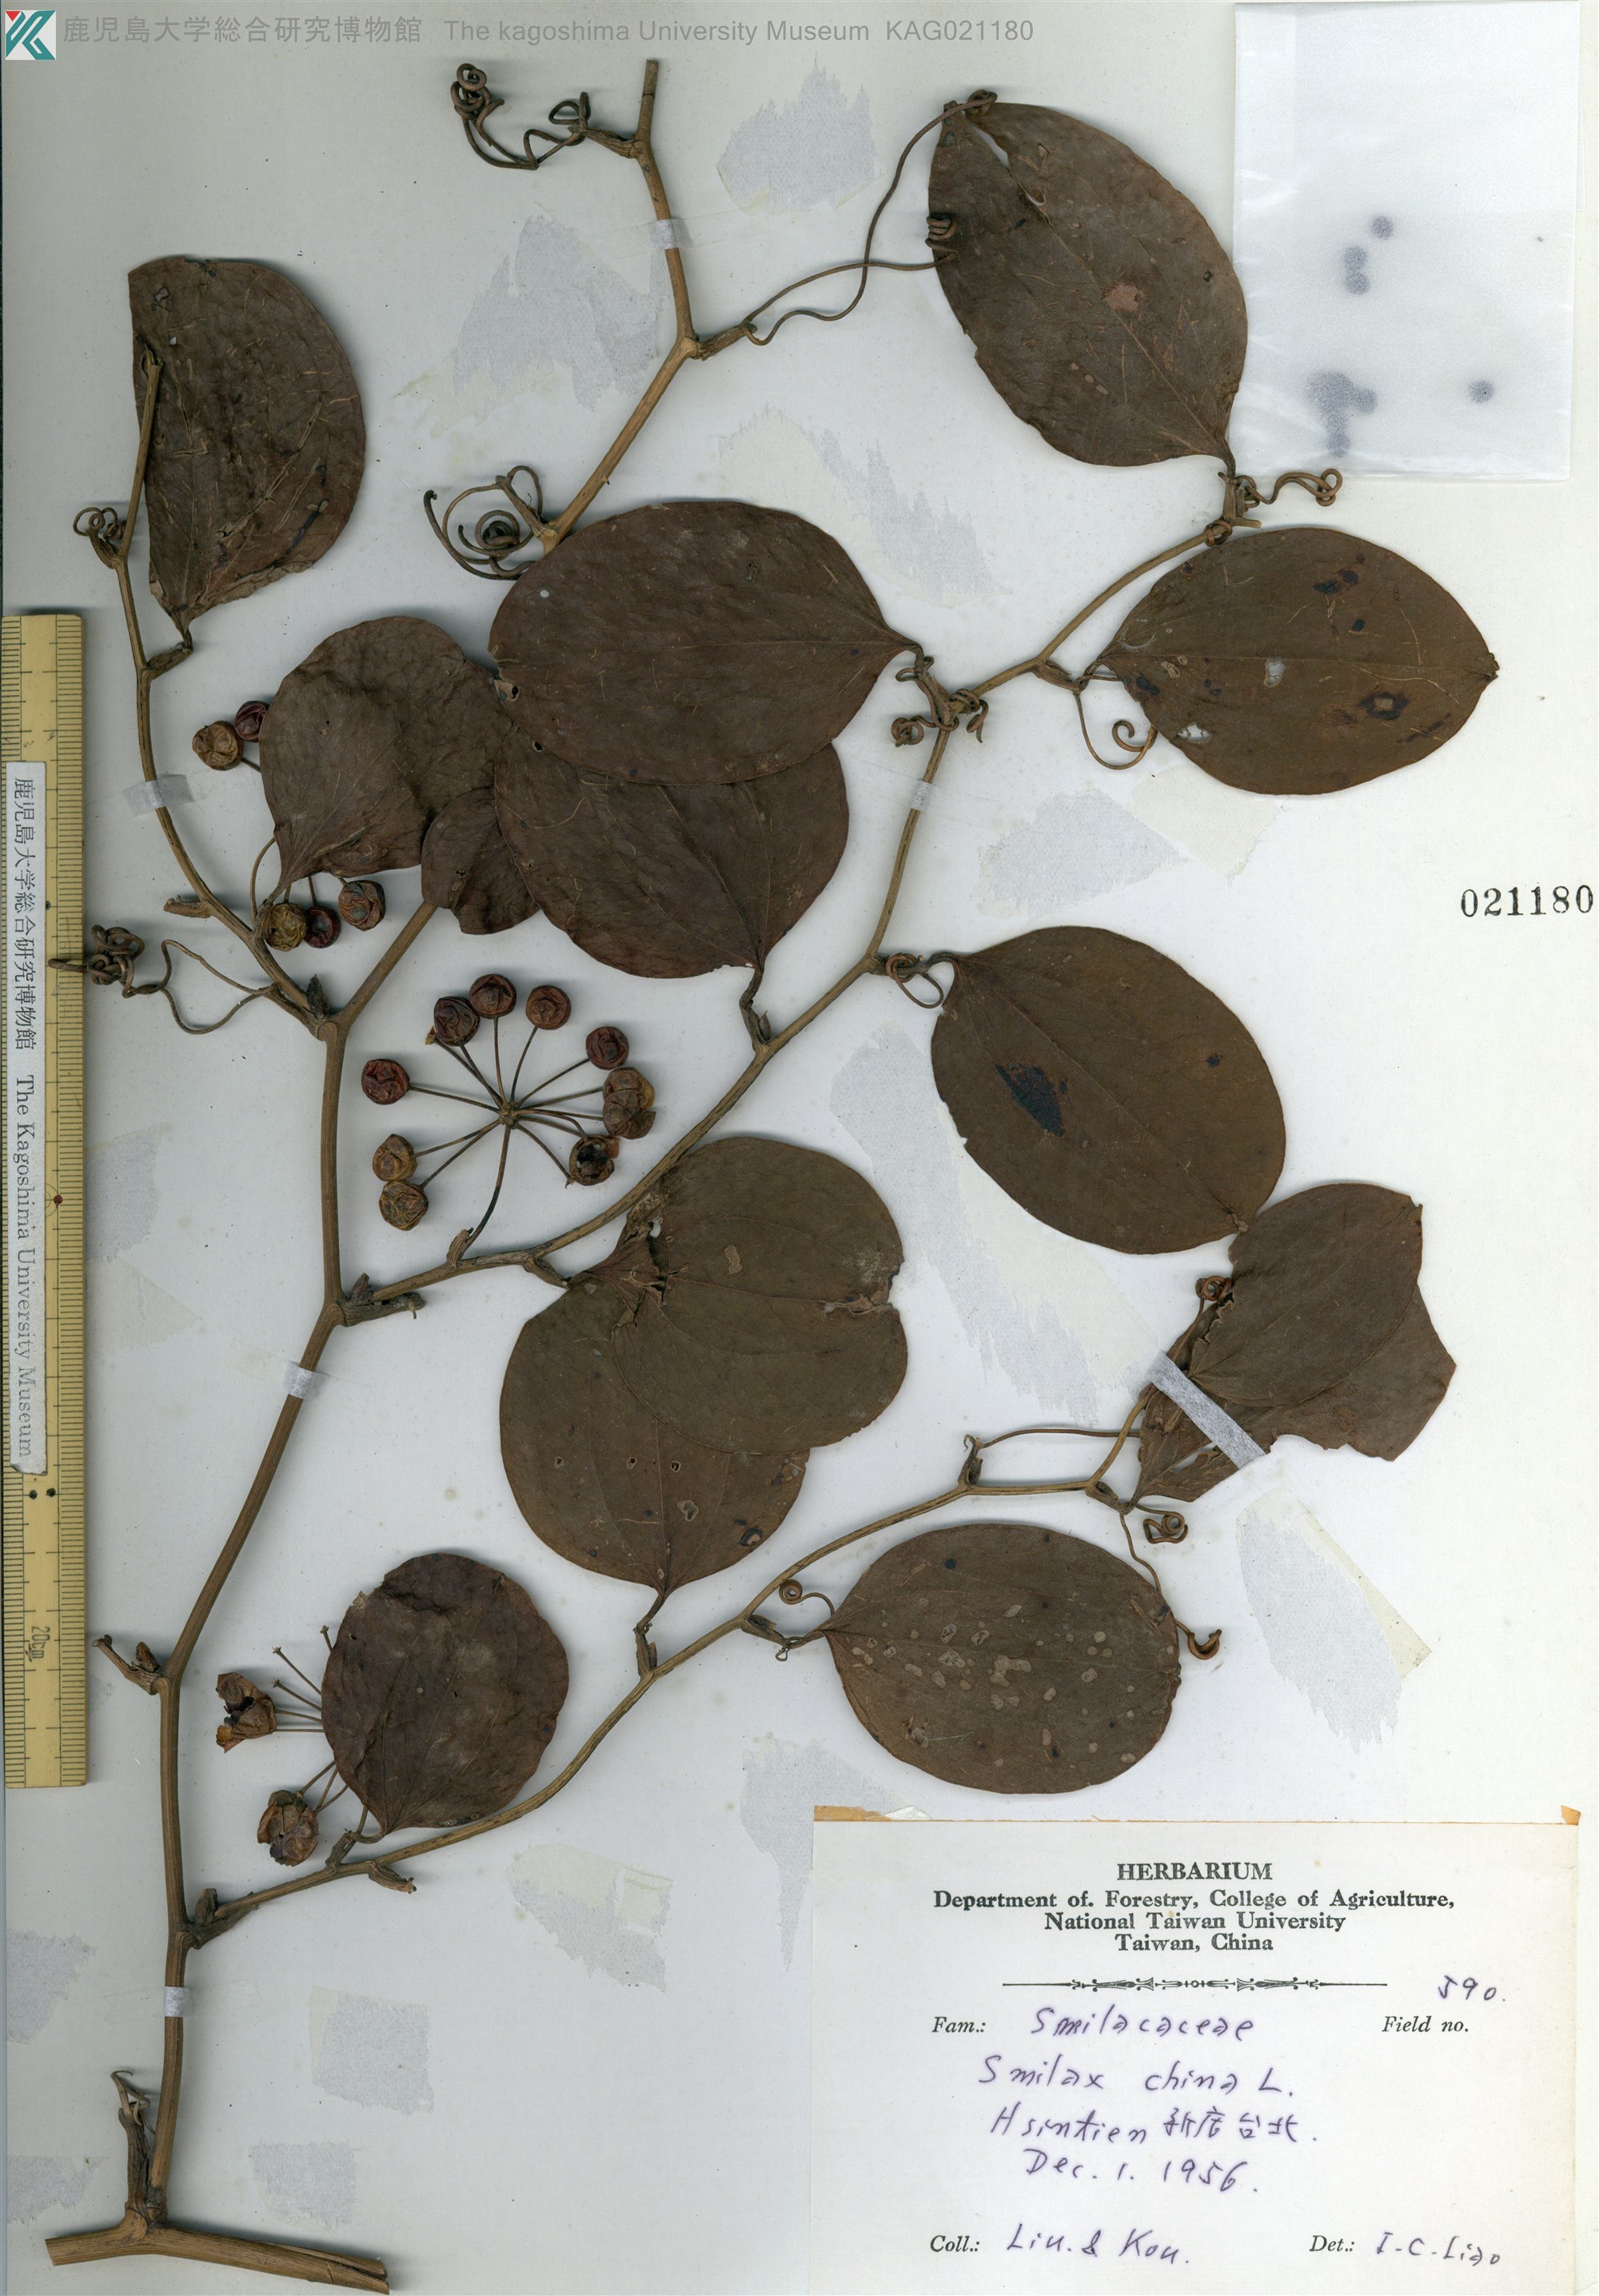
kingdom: Plantae
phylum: Tracheophyta
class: Liliopsida
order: Liliales
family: Smilacaceae
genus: Smilax
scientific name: Smilax china
